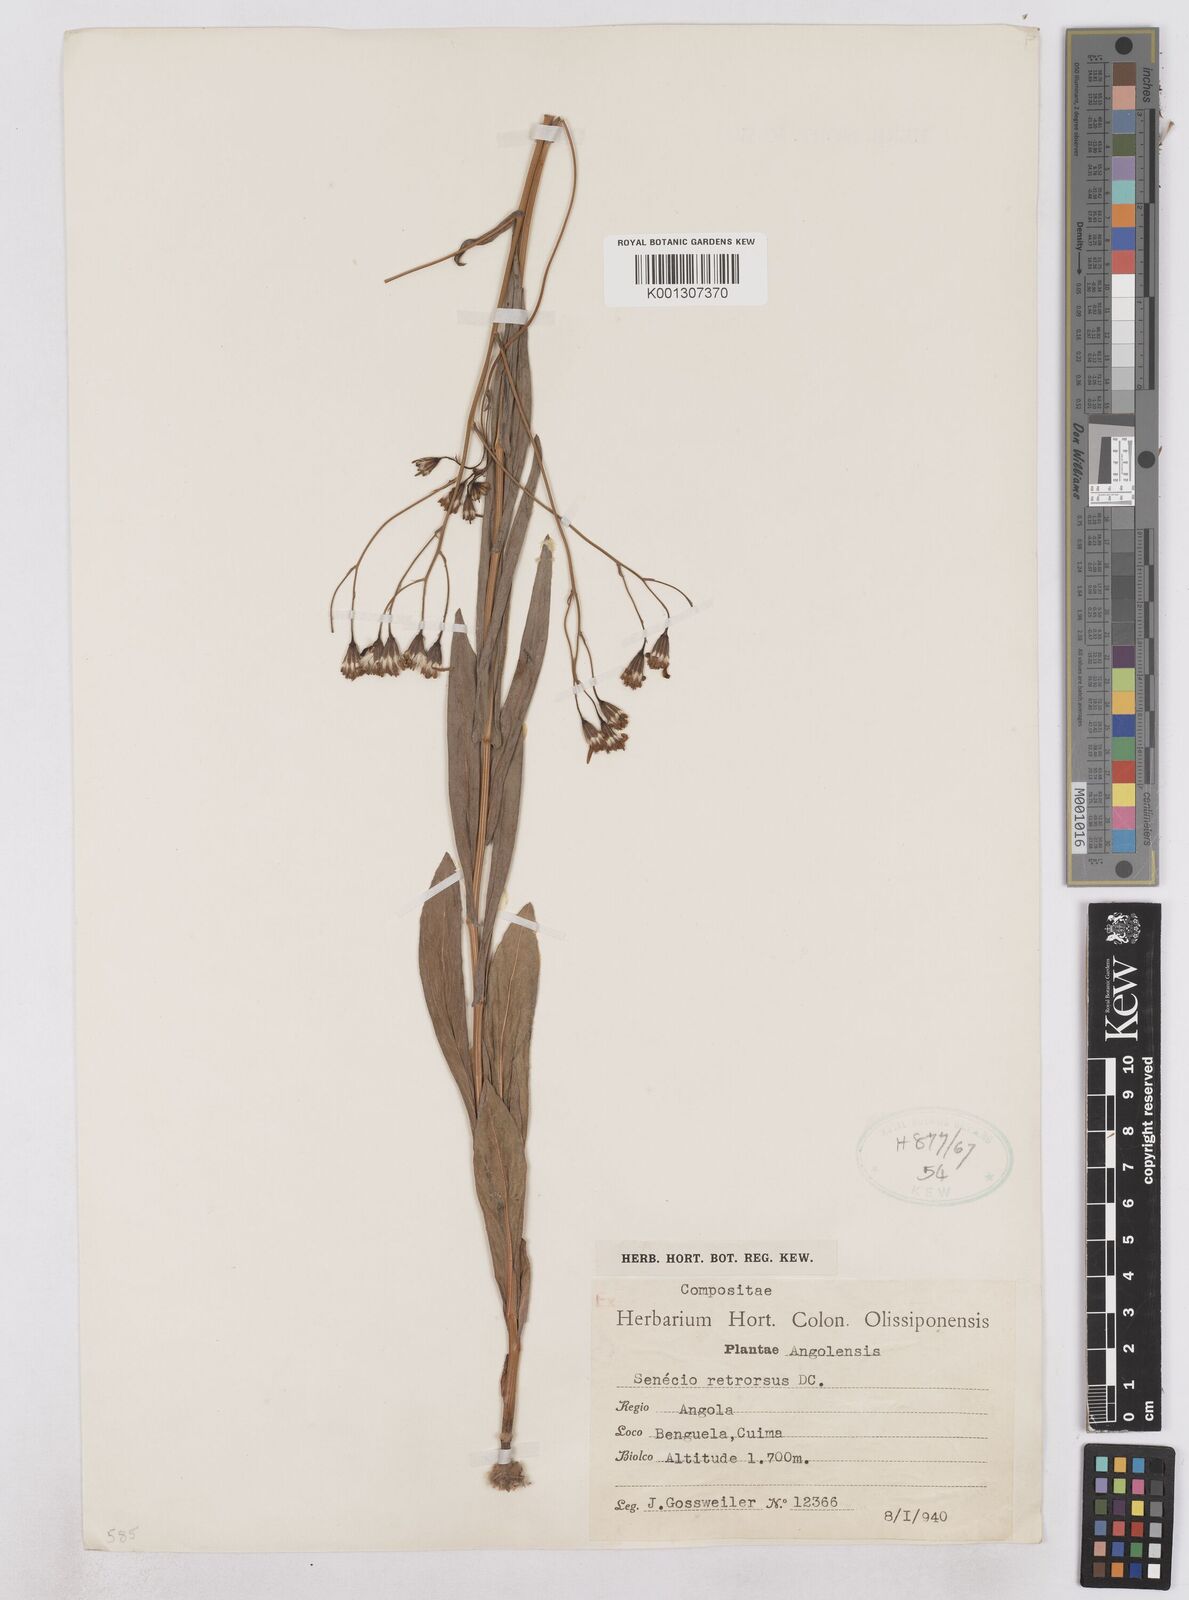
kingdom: Plantae
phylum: Tracheophyta
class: Magnoliopsida
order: Asterales
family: Asteraceae
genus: Senecio
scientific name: Senecio latifolius
